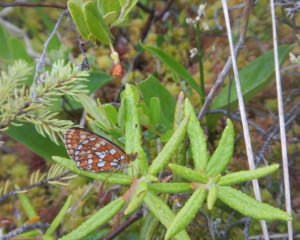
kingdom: Animalia
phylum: Arthropoda
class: Insecta
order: Lepidoptera
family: Nymphalidae
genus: Boloria
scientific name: Boloria eunomia
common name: Bog Fritillary
